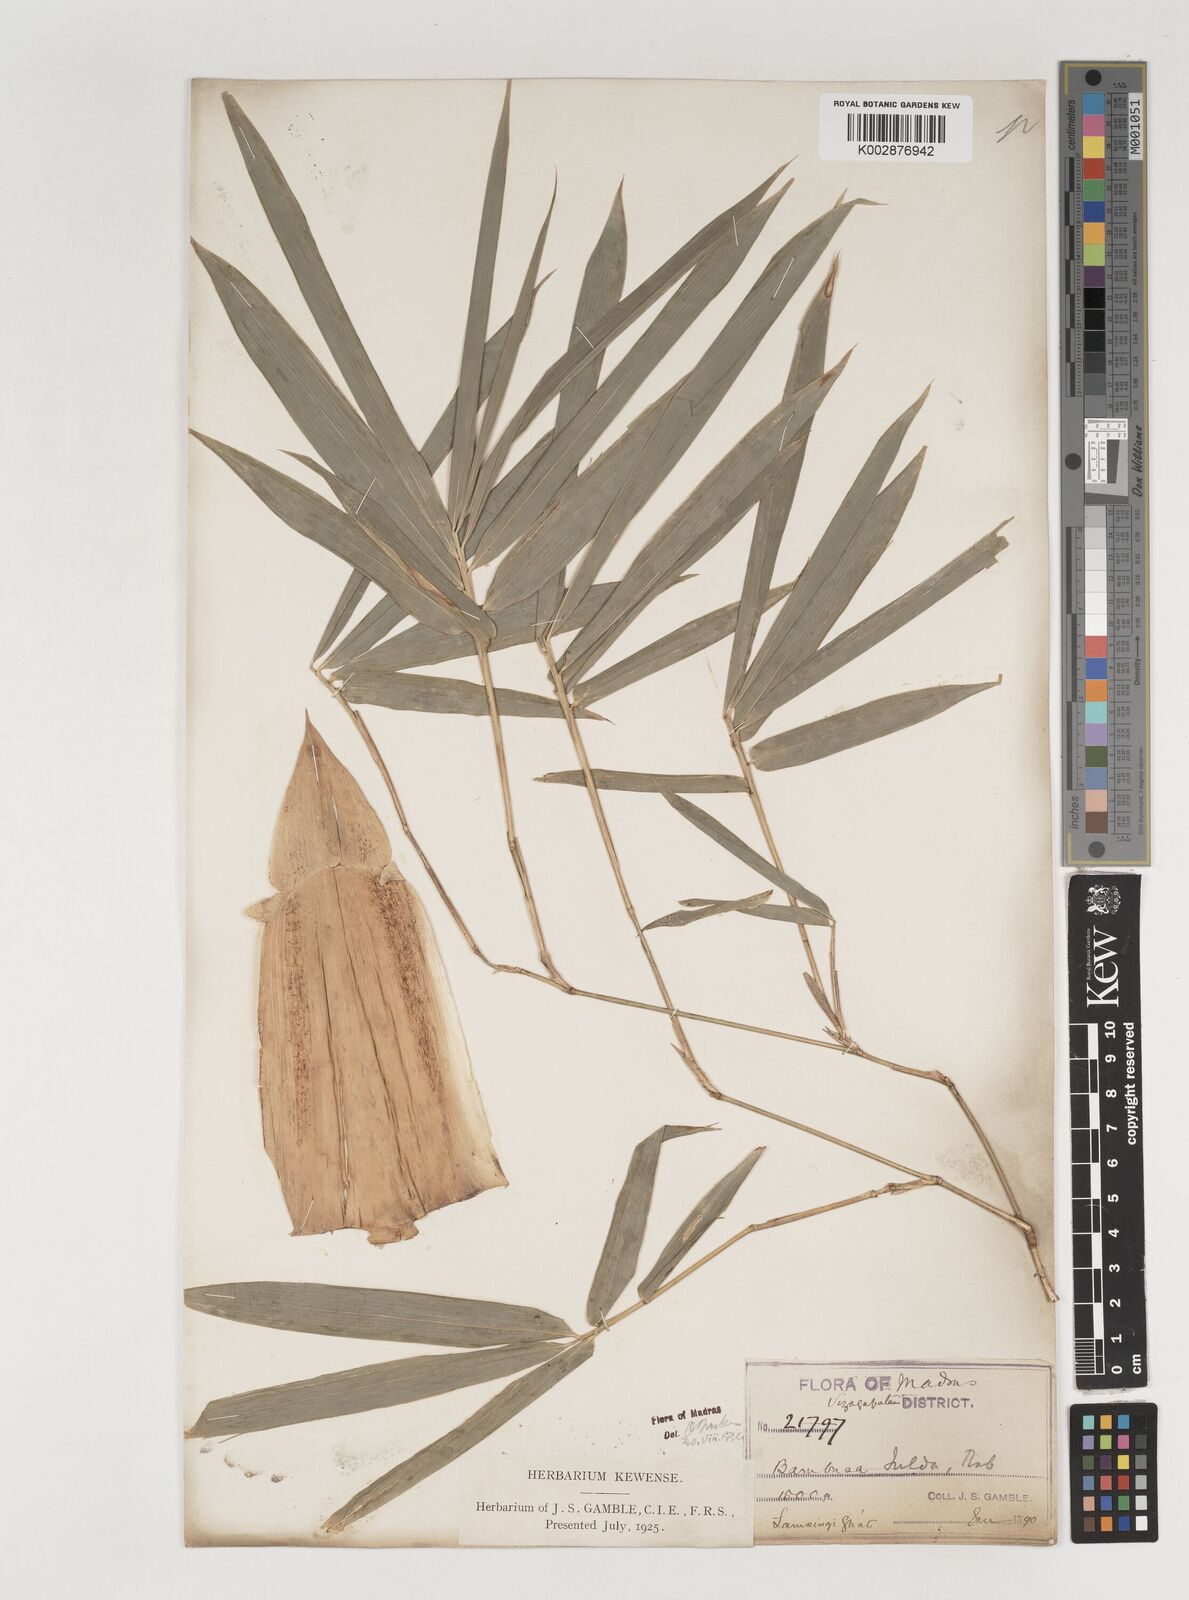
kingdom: Plantae
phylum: Tracheophyta
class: Liliopsida
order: Poales
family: Poaceae
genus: Bambusa
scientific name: Bambusa tulda
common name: Bengal bamboo
